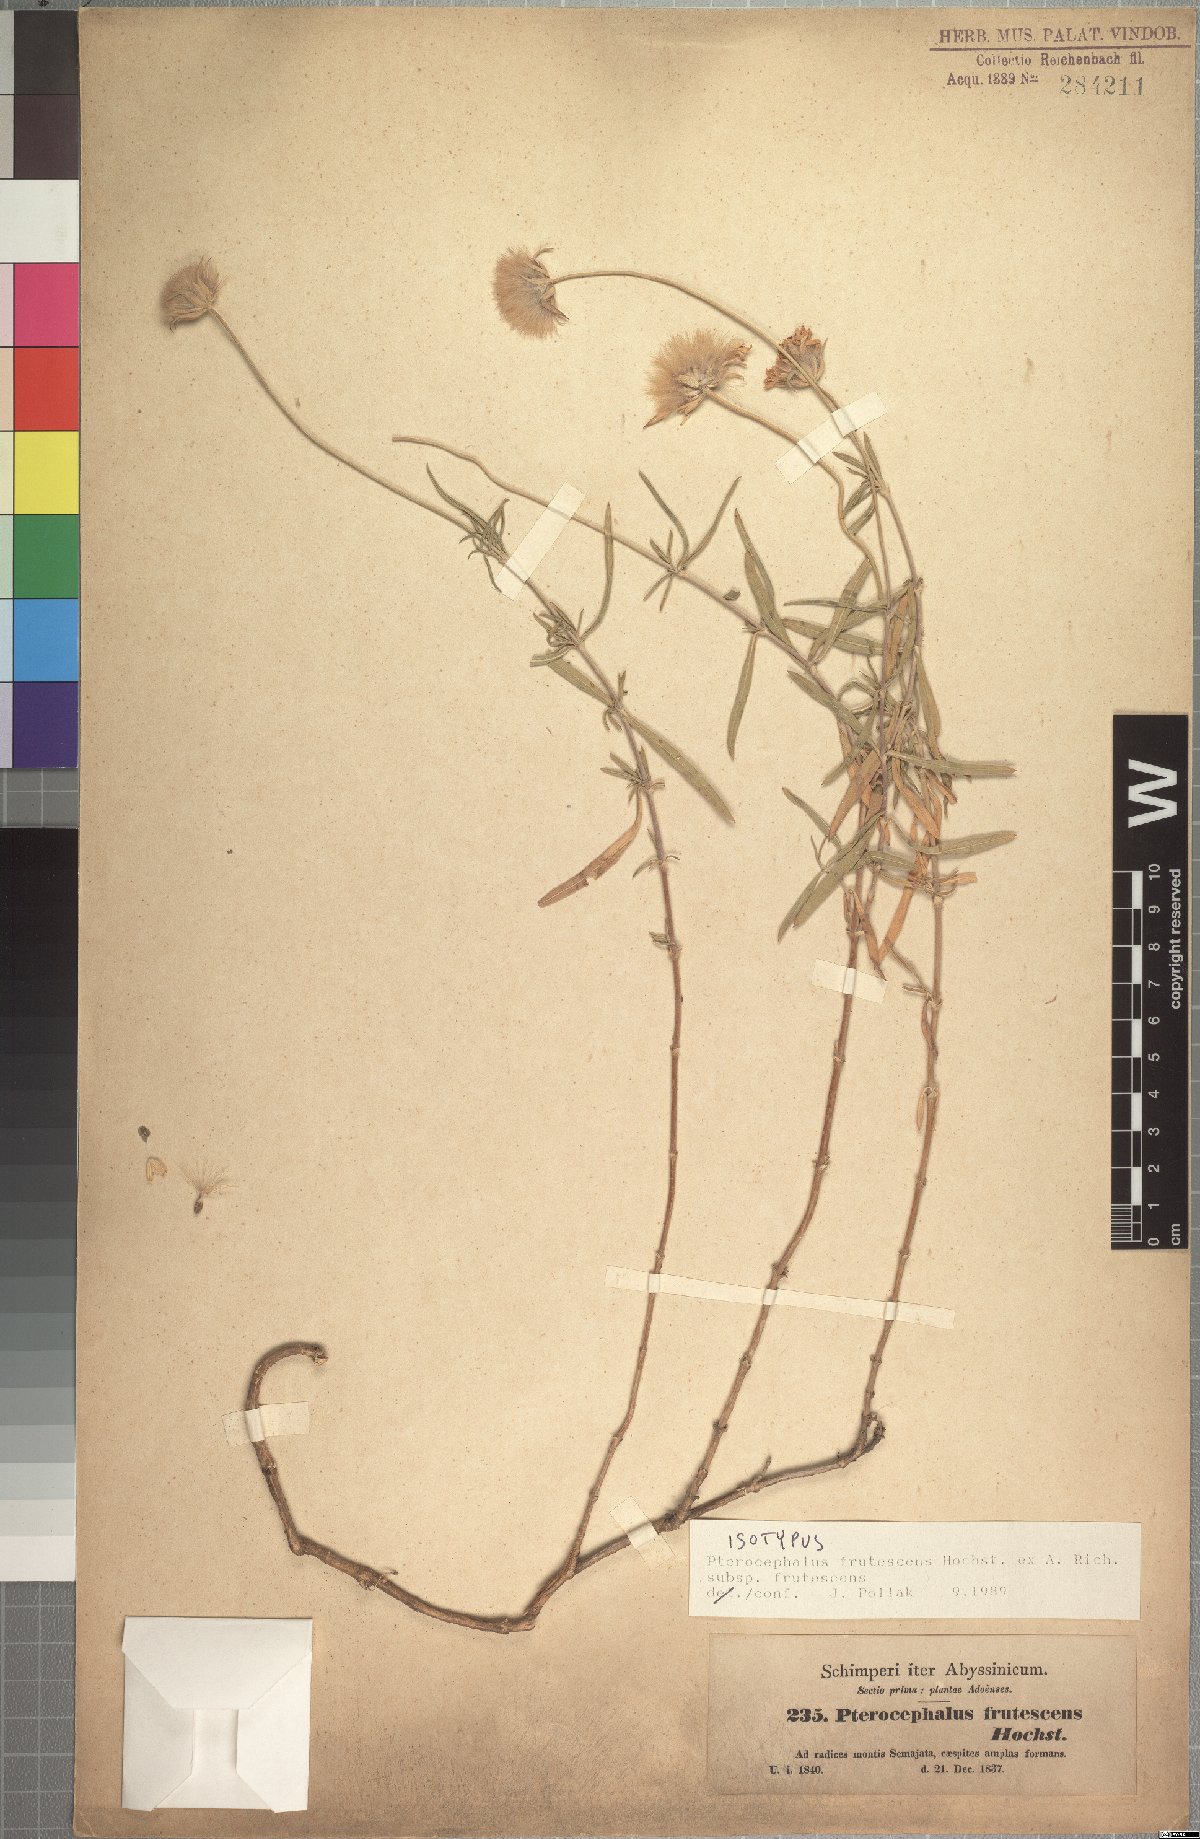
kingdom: Plantae
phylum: Tracheophyta
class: Magnoliopsida
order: Dipsacales
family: Caprifoliaceae
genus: Pterocephalus
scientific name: Pterocephalus frutescens
